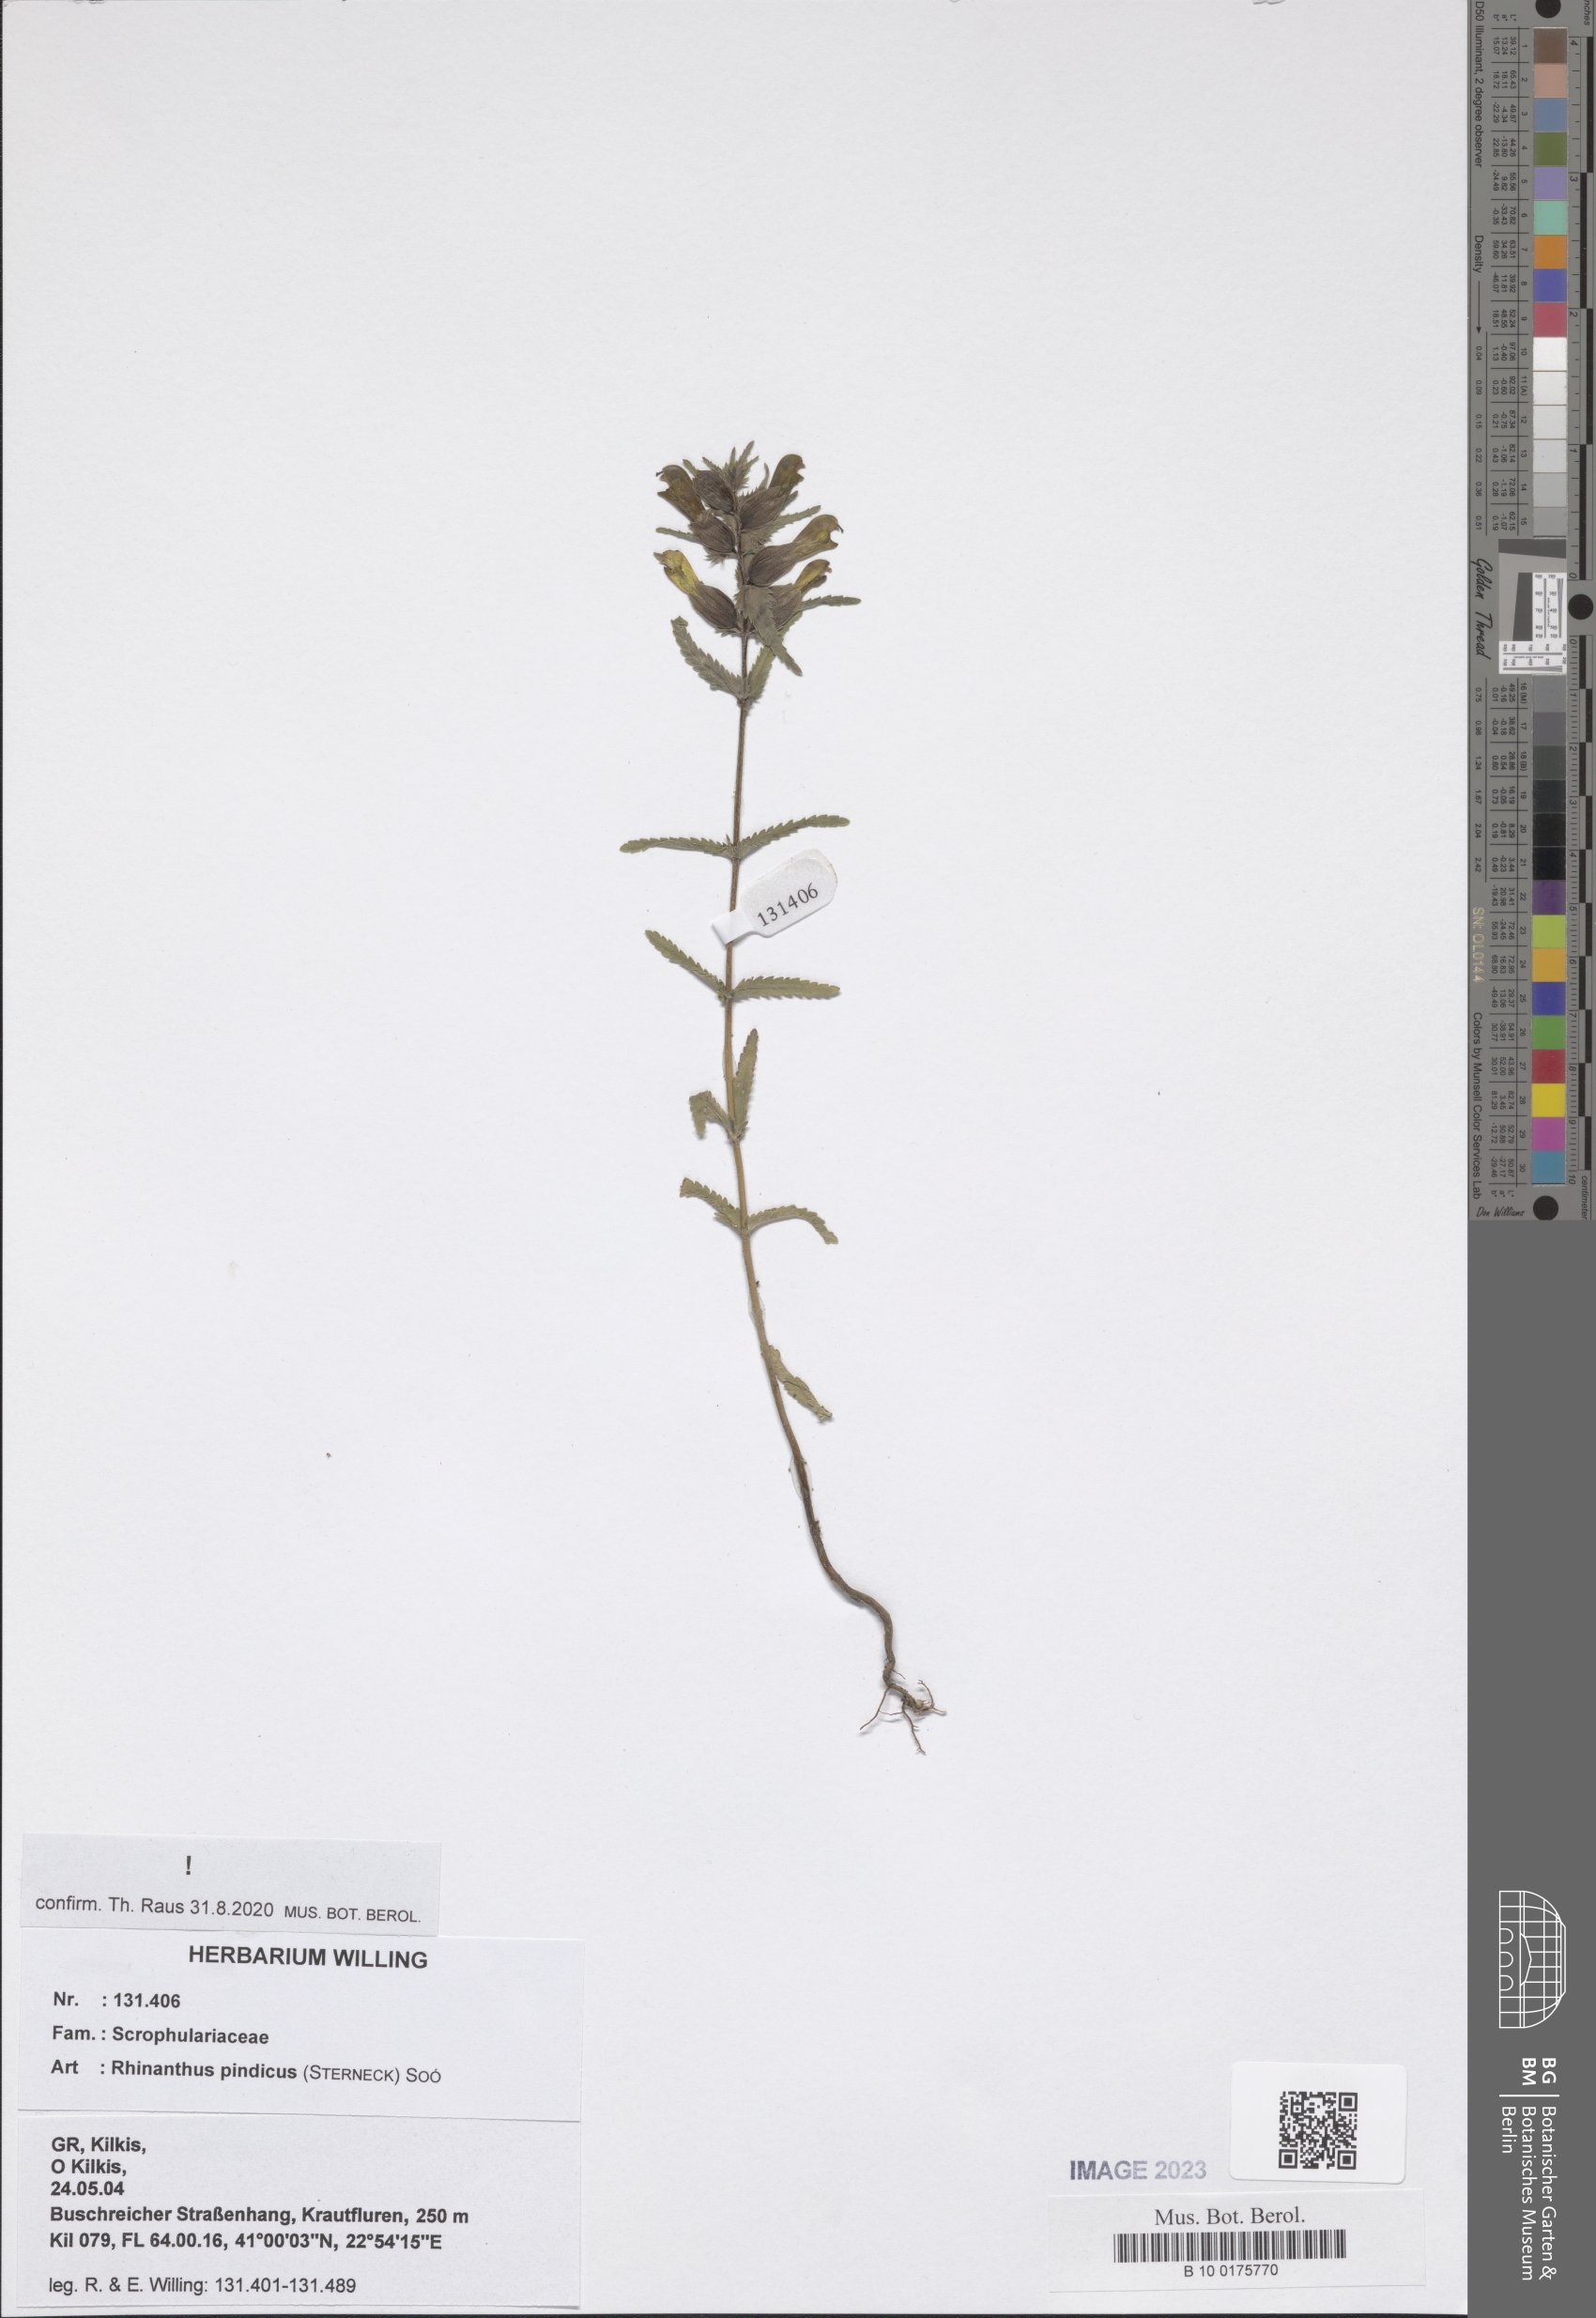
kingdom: Plantae
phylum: Tracheophyta
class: Magnoliopsida
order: Lamiales
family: Orobanchaceae
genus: Rhinanthus
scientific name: Rhinanthus pindicus
